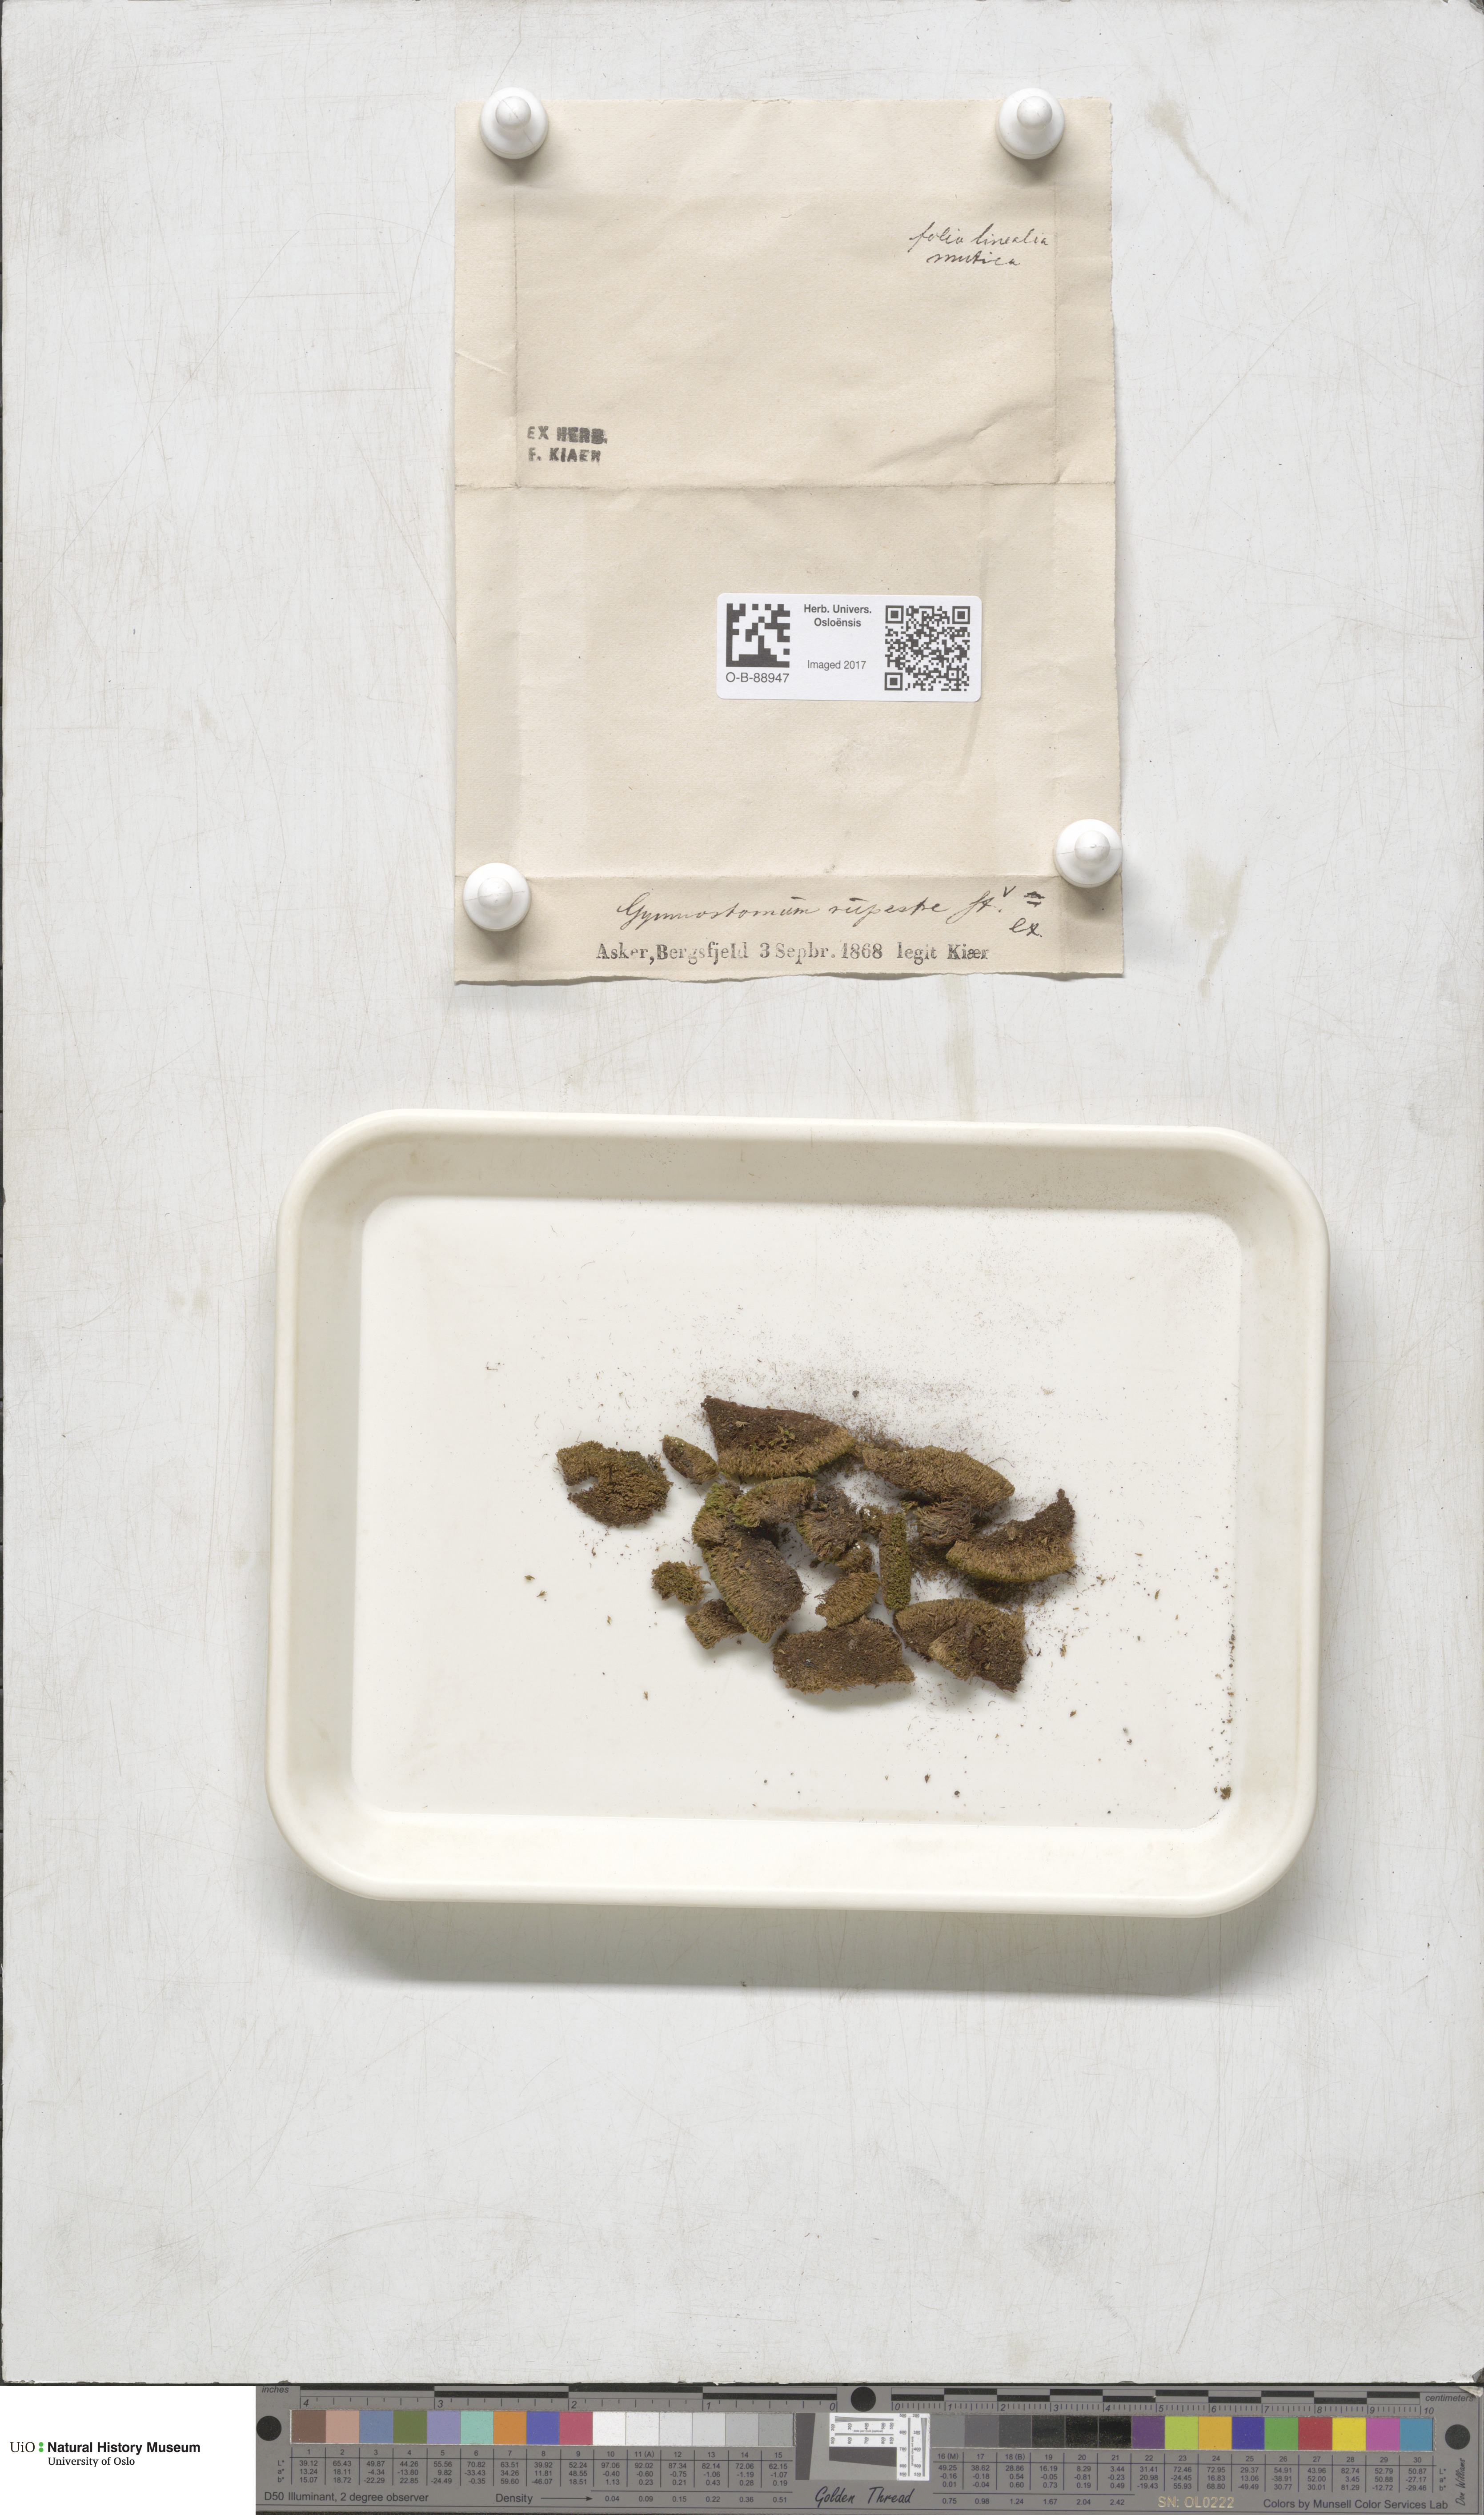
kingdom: Plantae
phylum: Bryophyta
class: Bryopsida
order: Pottiales
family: Pottiaceae
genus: Gymnostomum
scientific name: Gymnostomum aeruginosum
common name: Verdigris tufa-moss
